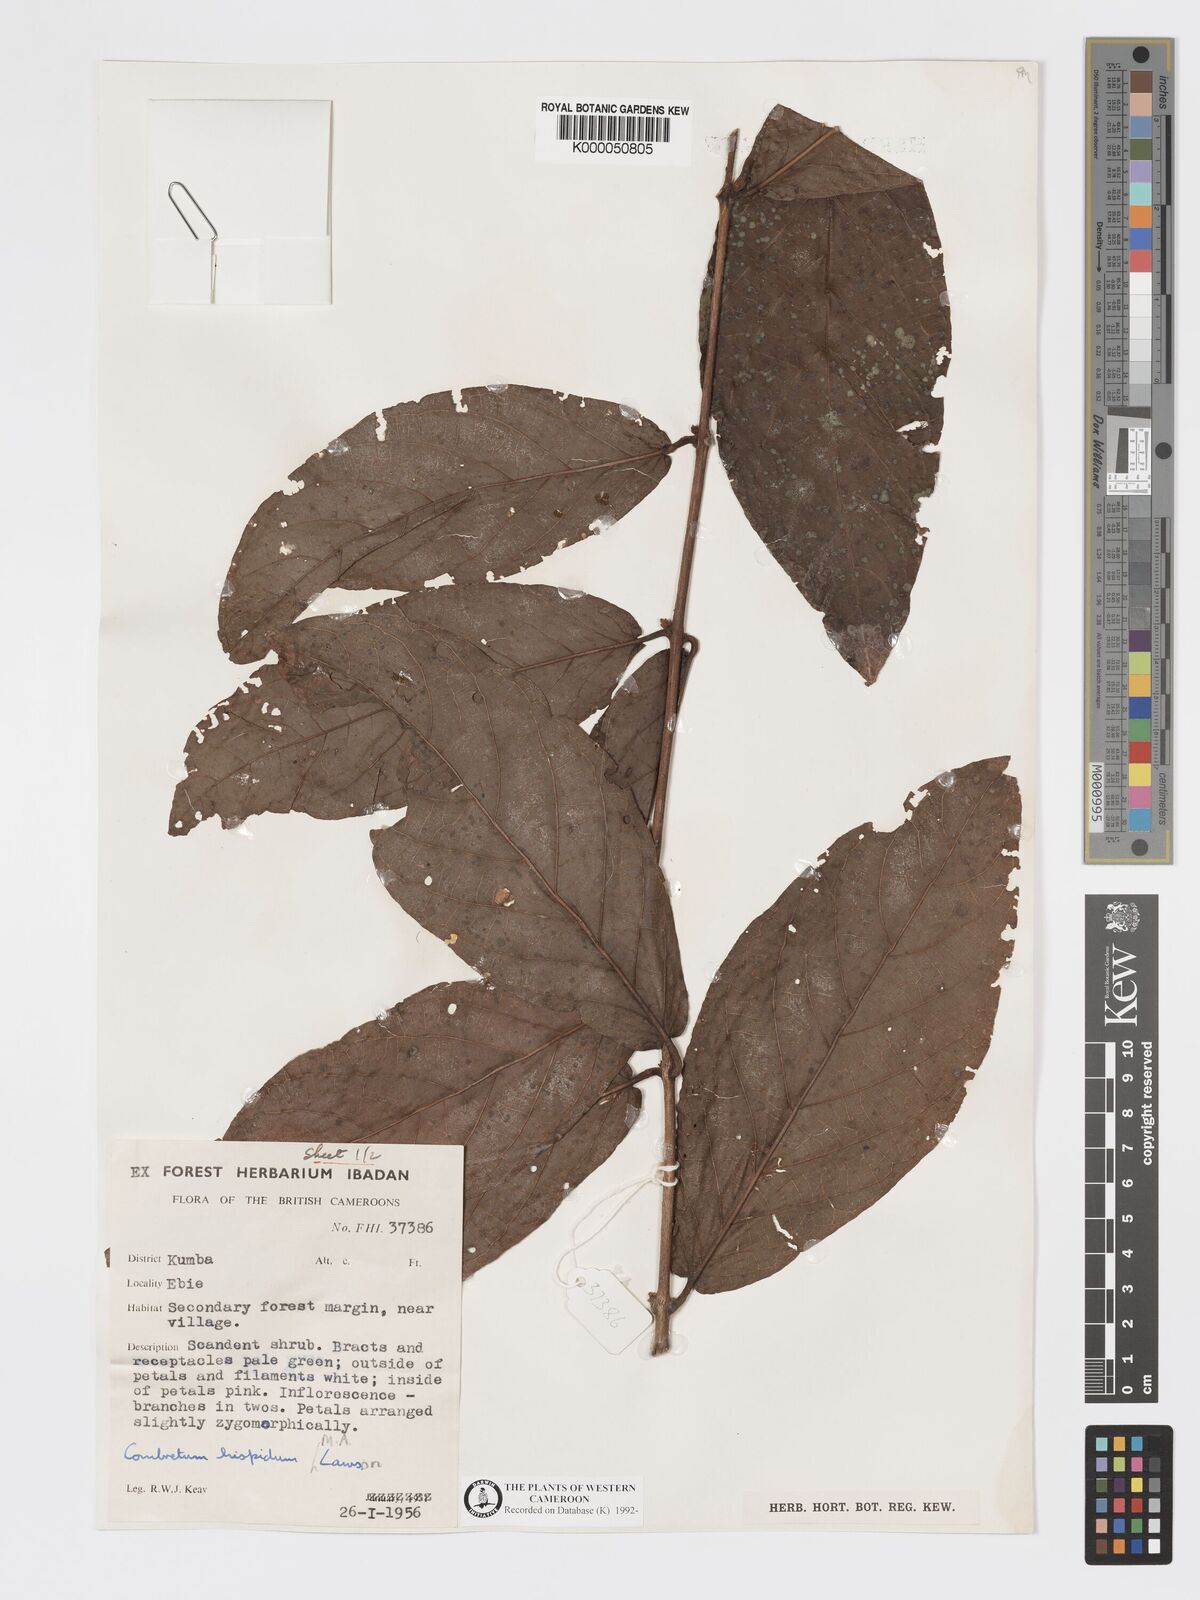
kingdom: Plantae
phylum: Tracheophyta
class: Magnoliopsida
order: Myrtales
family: Combretaceae
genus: Combretum
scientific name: Combretum
